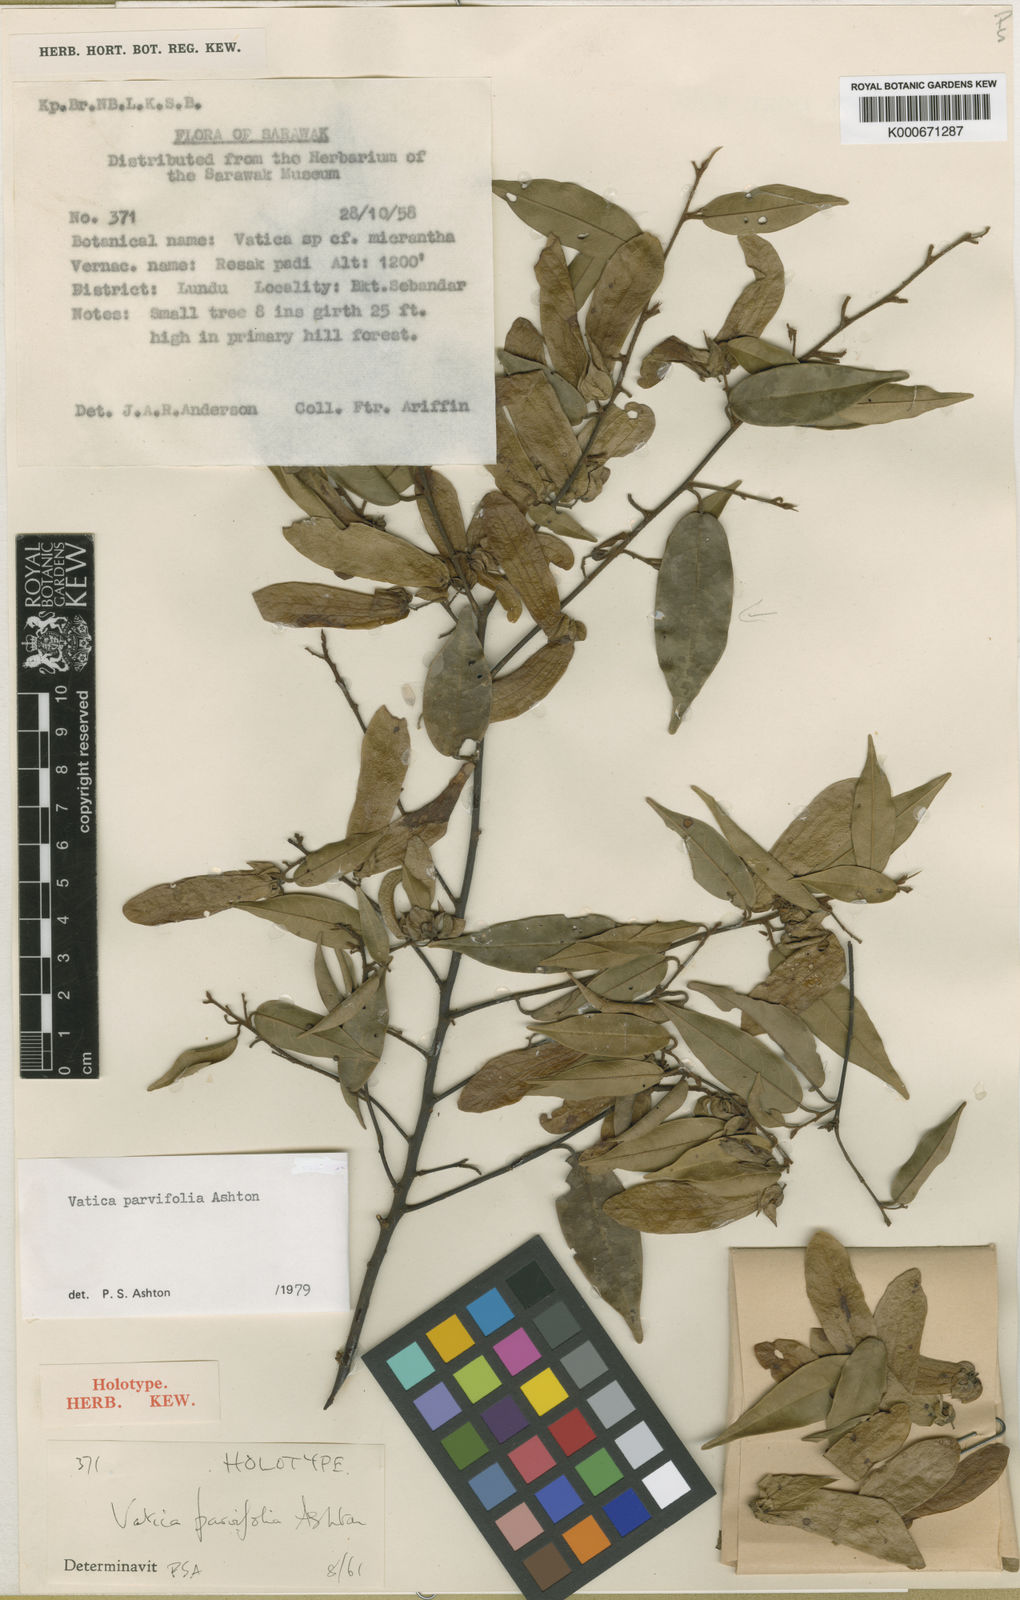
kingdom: Plantae
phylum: Tracheophyta
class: Magnoliopsida
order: Malvales
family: Dipterocarpaceae
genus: Vatica
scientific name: Vatica parvifolia
